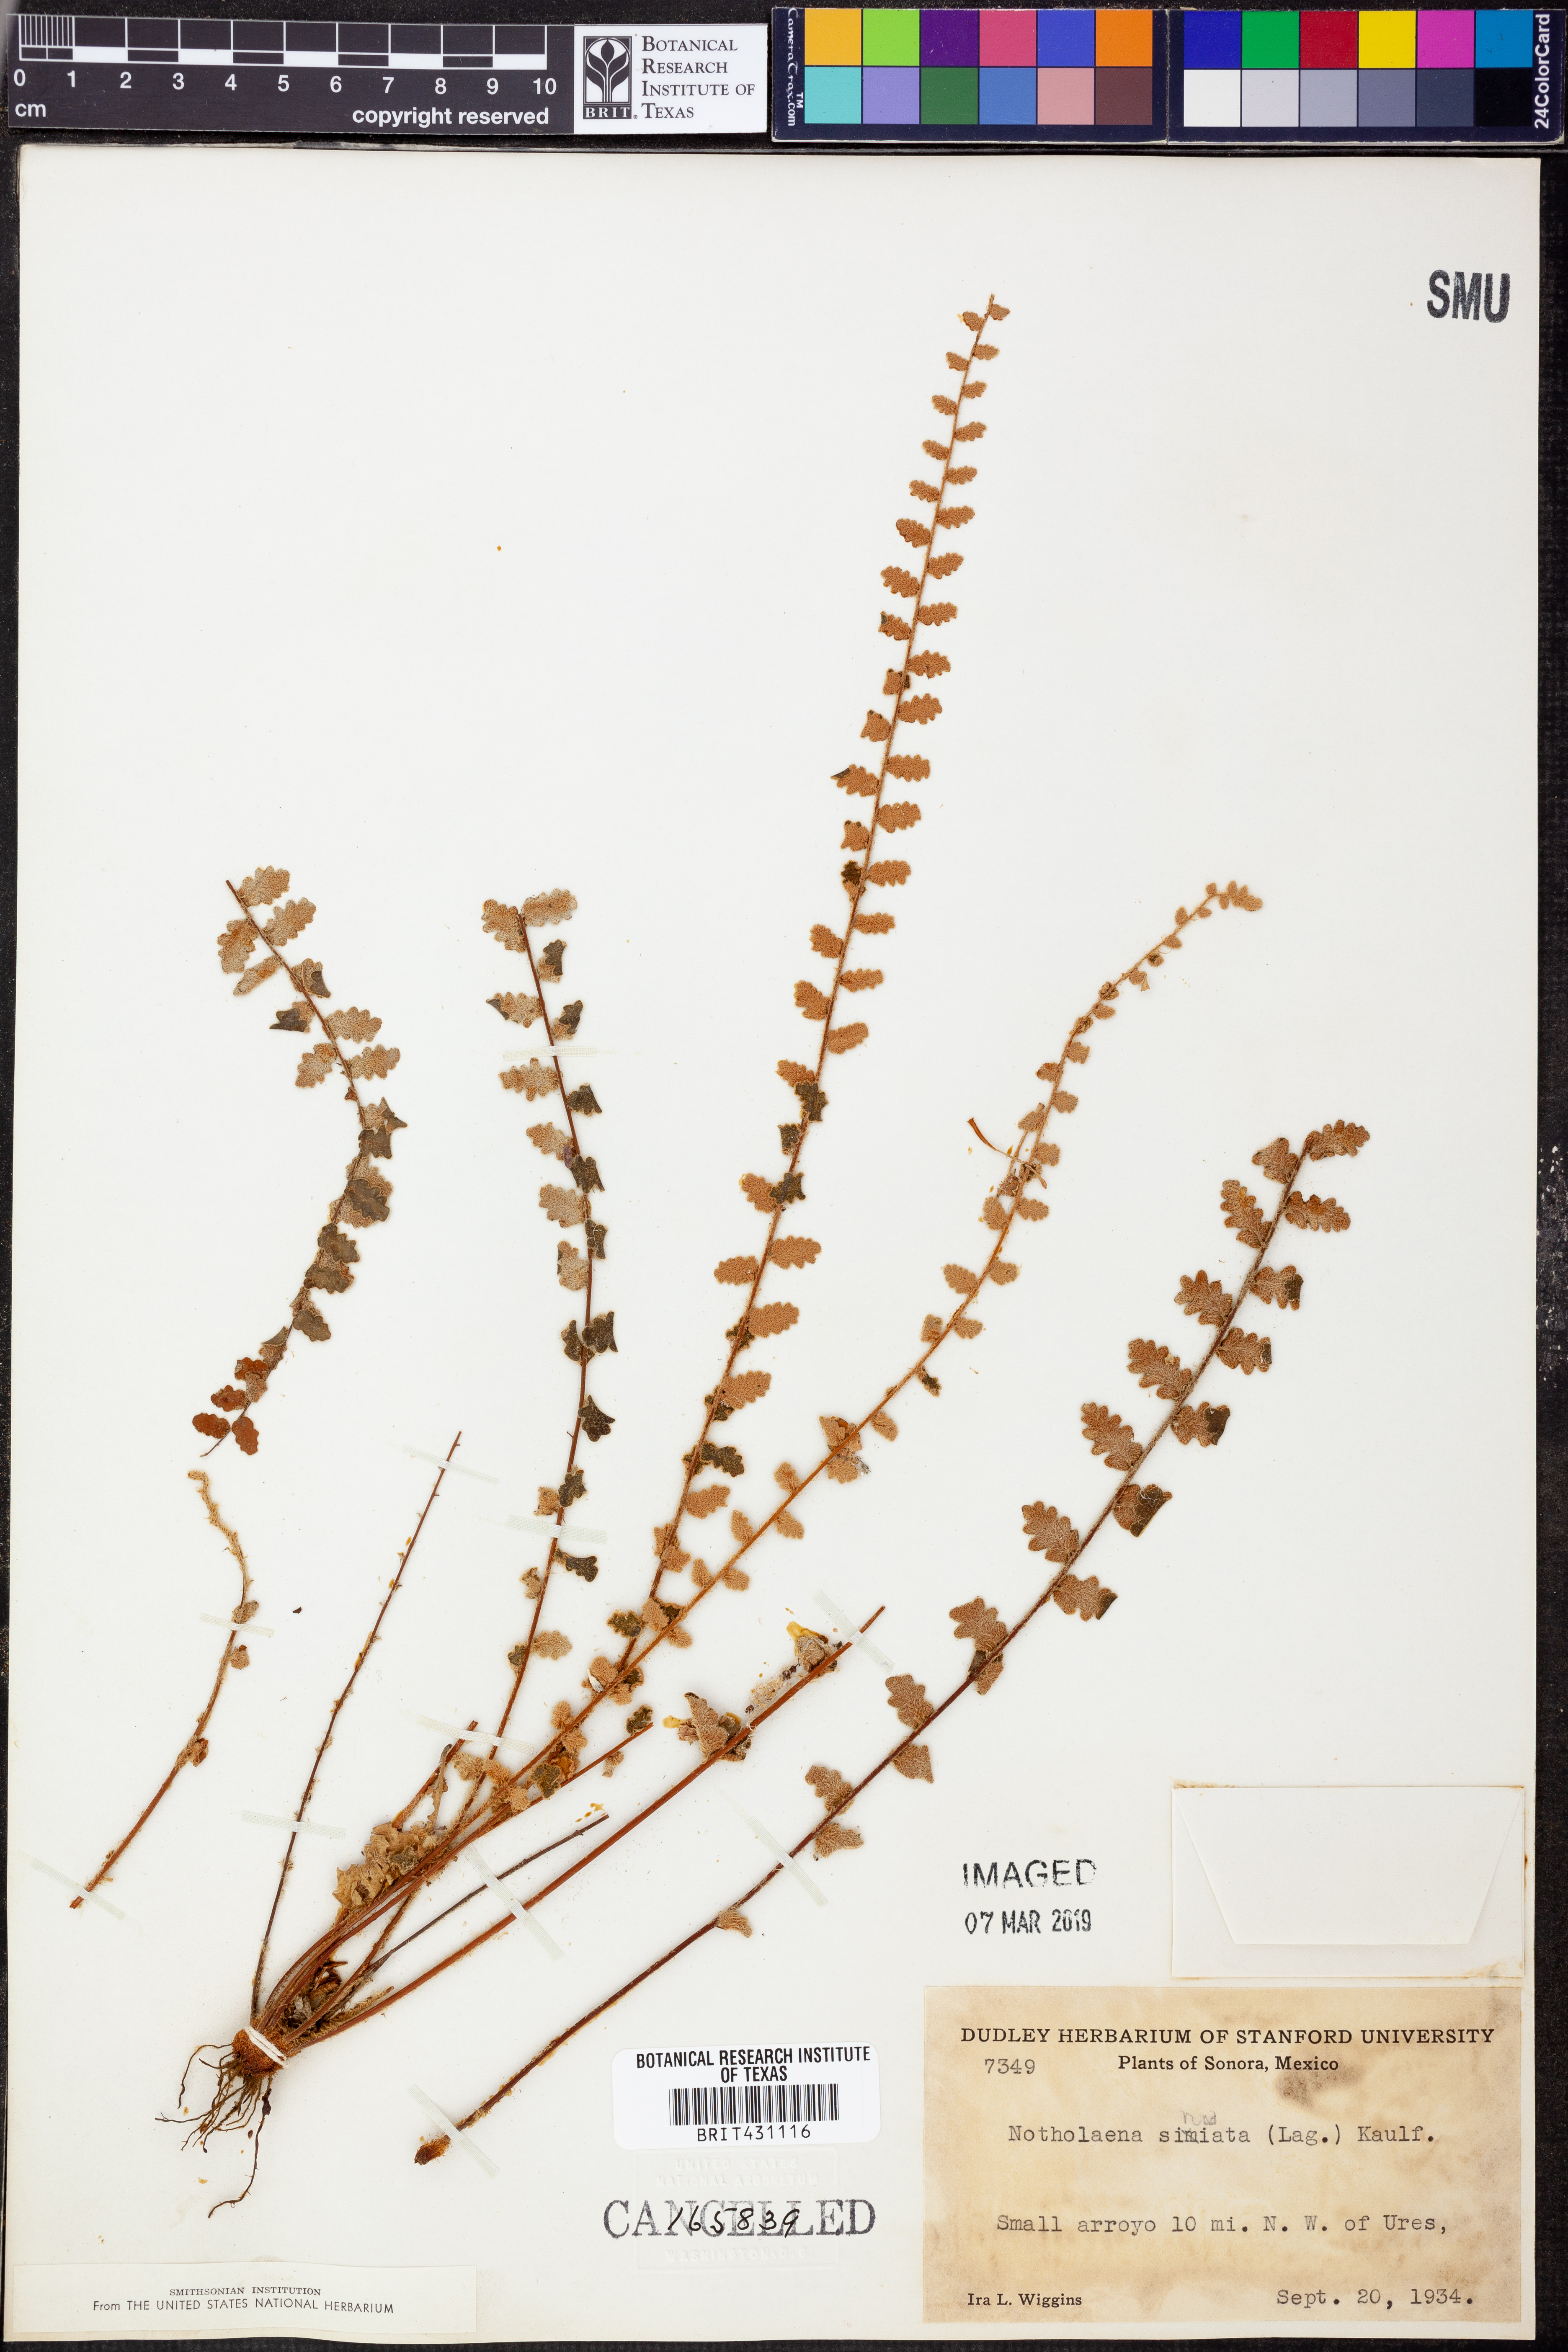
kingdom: Plantae
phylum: Tracheophyta
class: Polypodiopsida
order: Polypodiales
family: Pteridaceae
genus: Astrolepis
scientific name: Astrolepis sinuata
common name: Wavy scaly cloakfern
